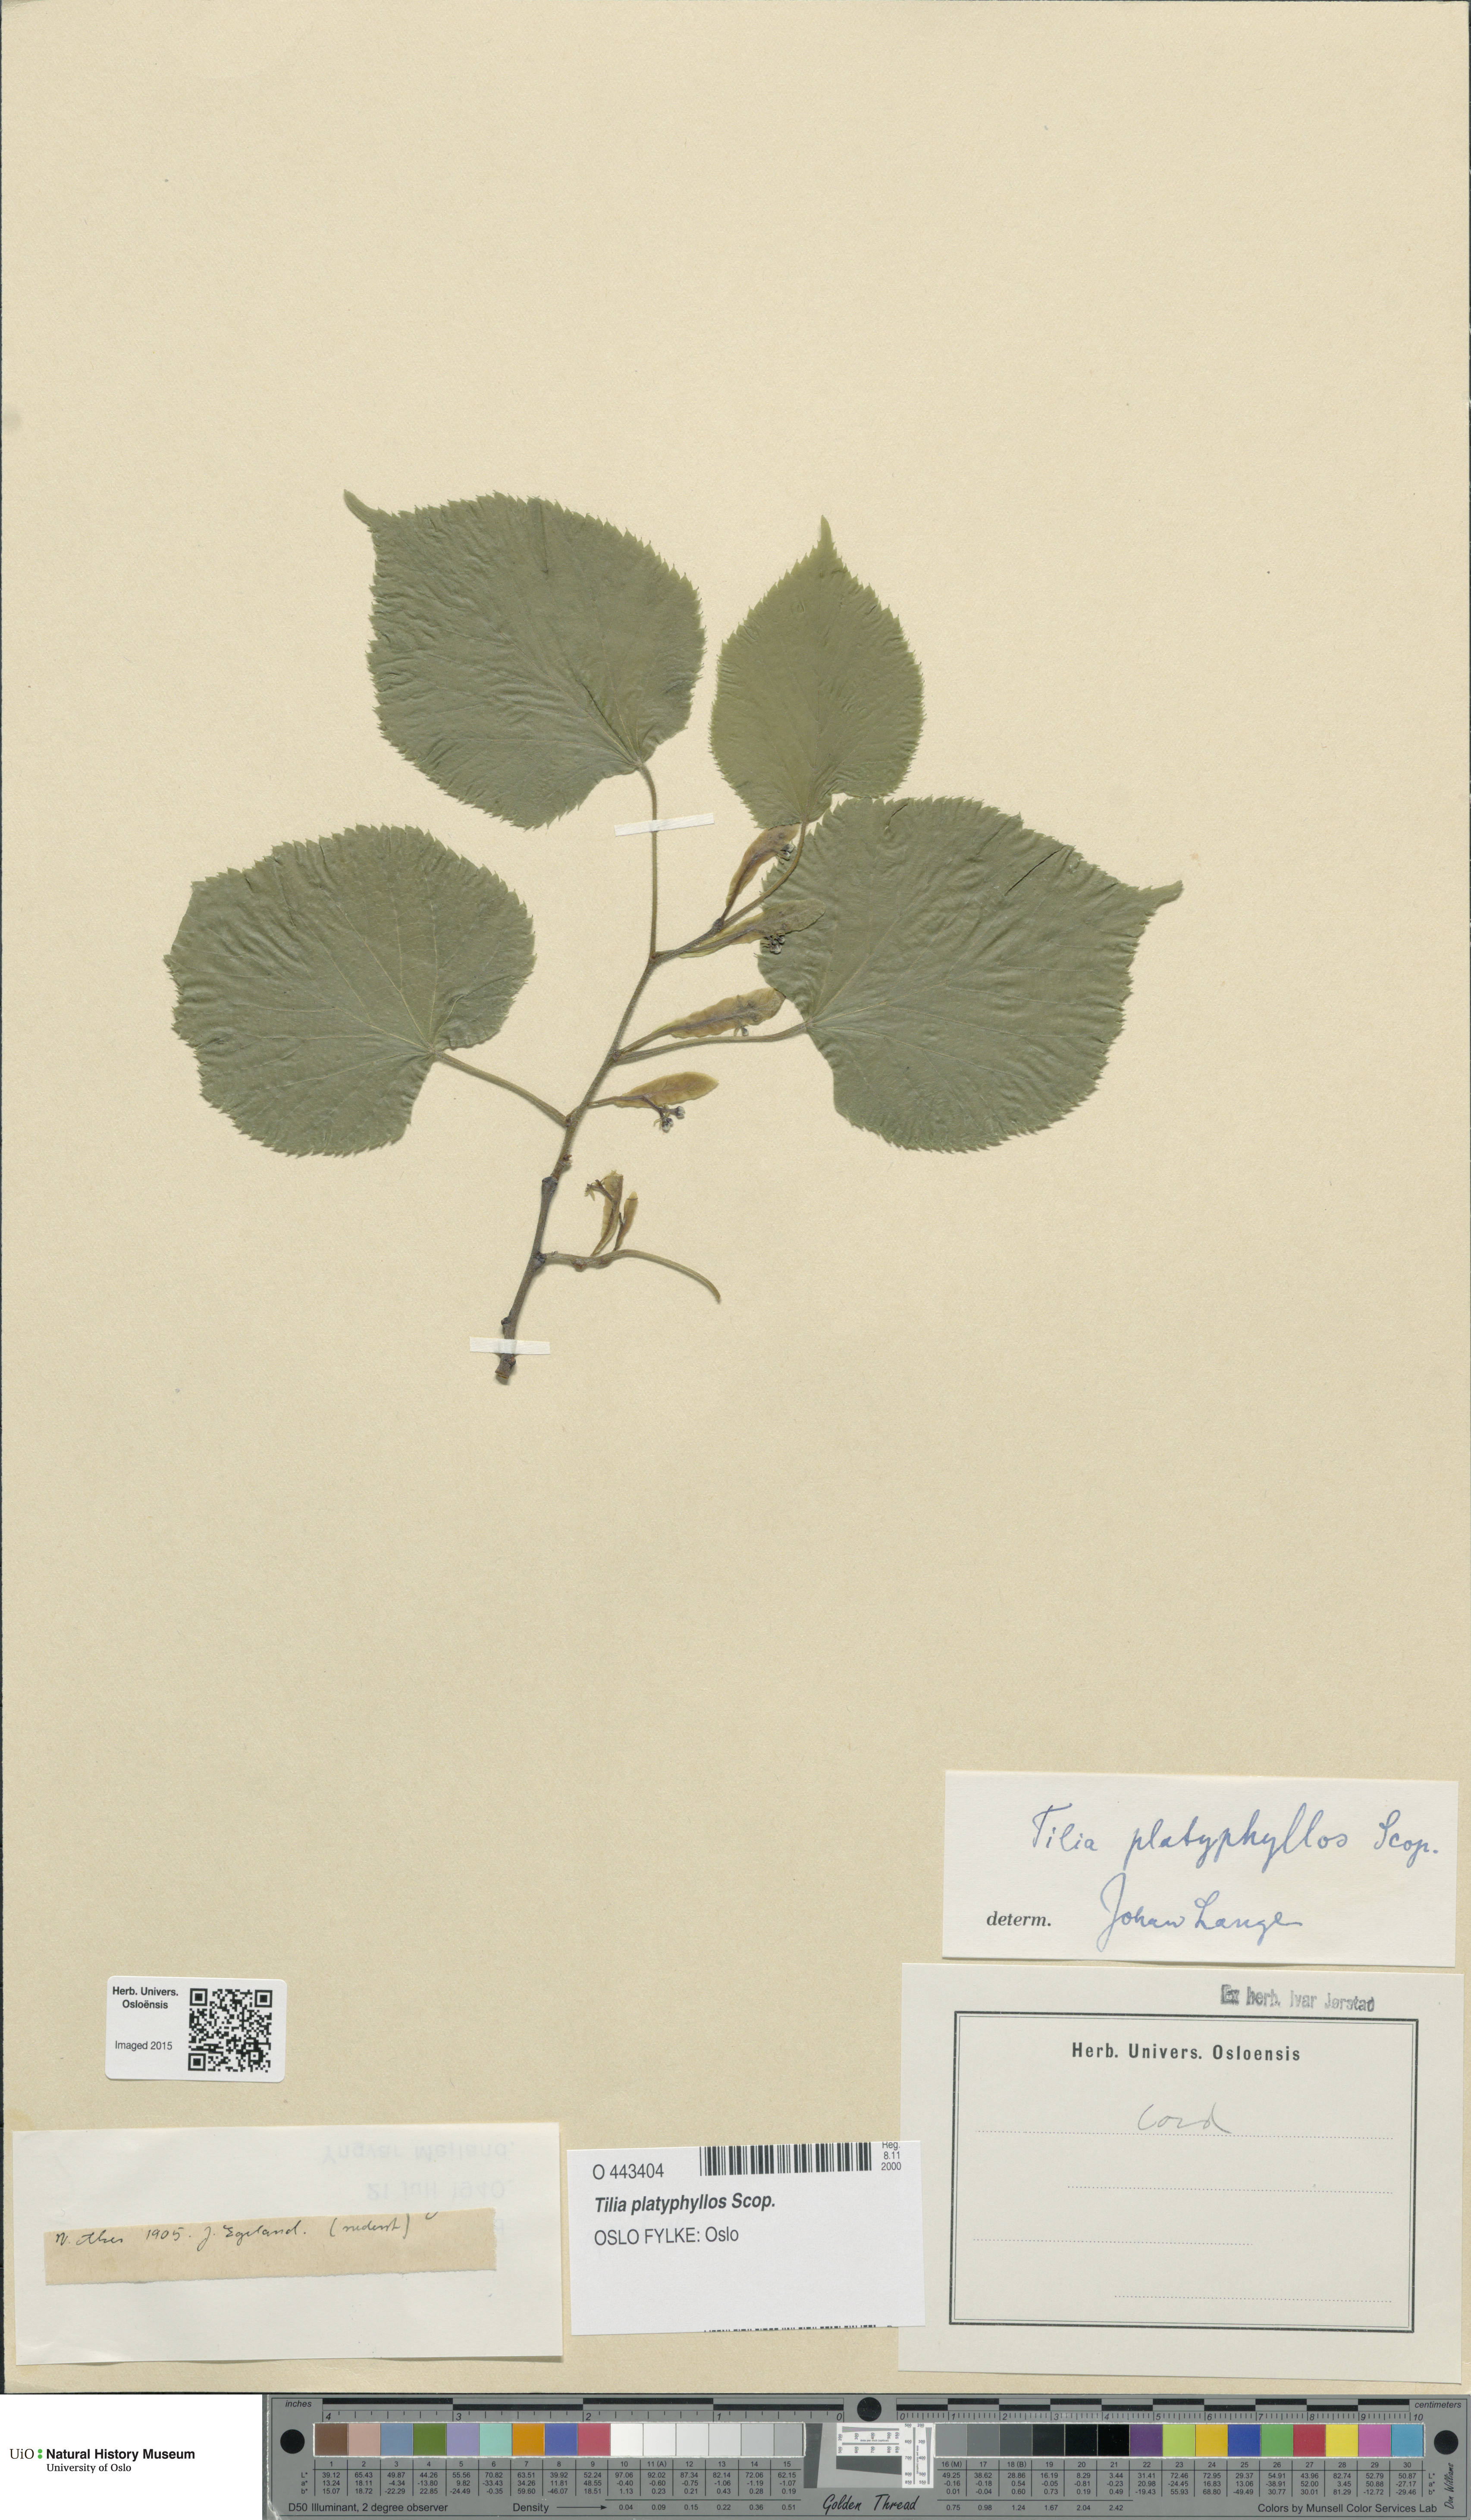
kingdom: Plantae
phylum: Tracheophyta
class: Magnoliopsida
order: Malvales
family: Malvaceae
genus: Tilia
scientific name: Tilia platyphyllos
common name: Large-leaved lime
